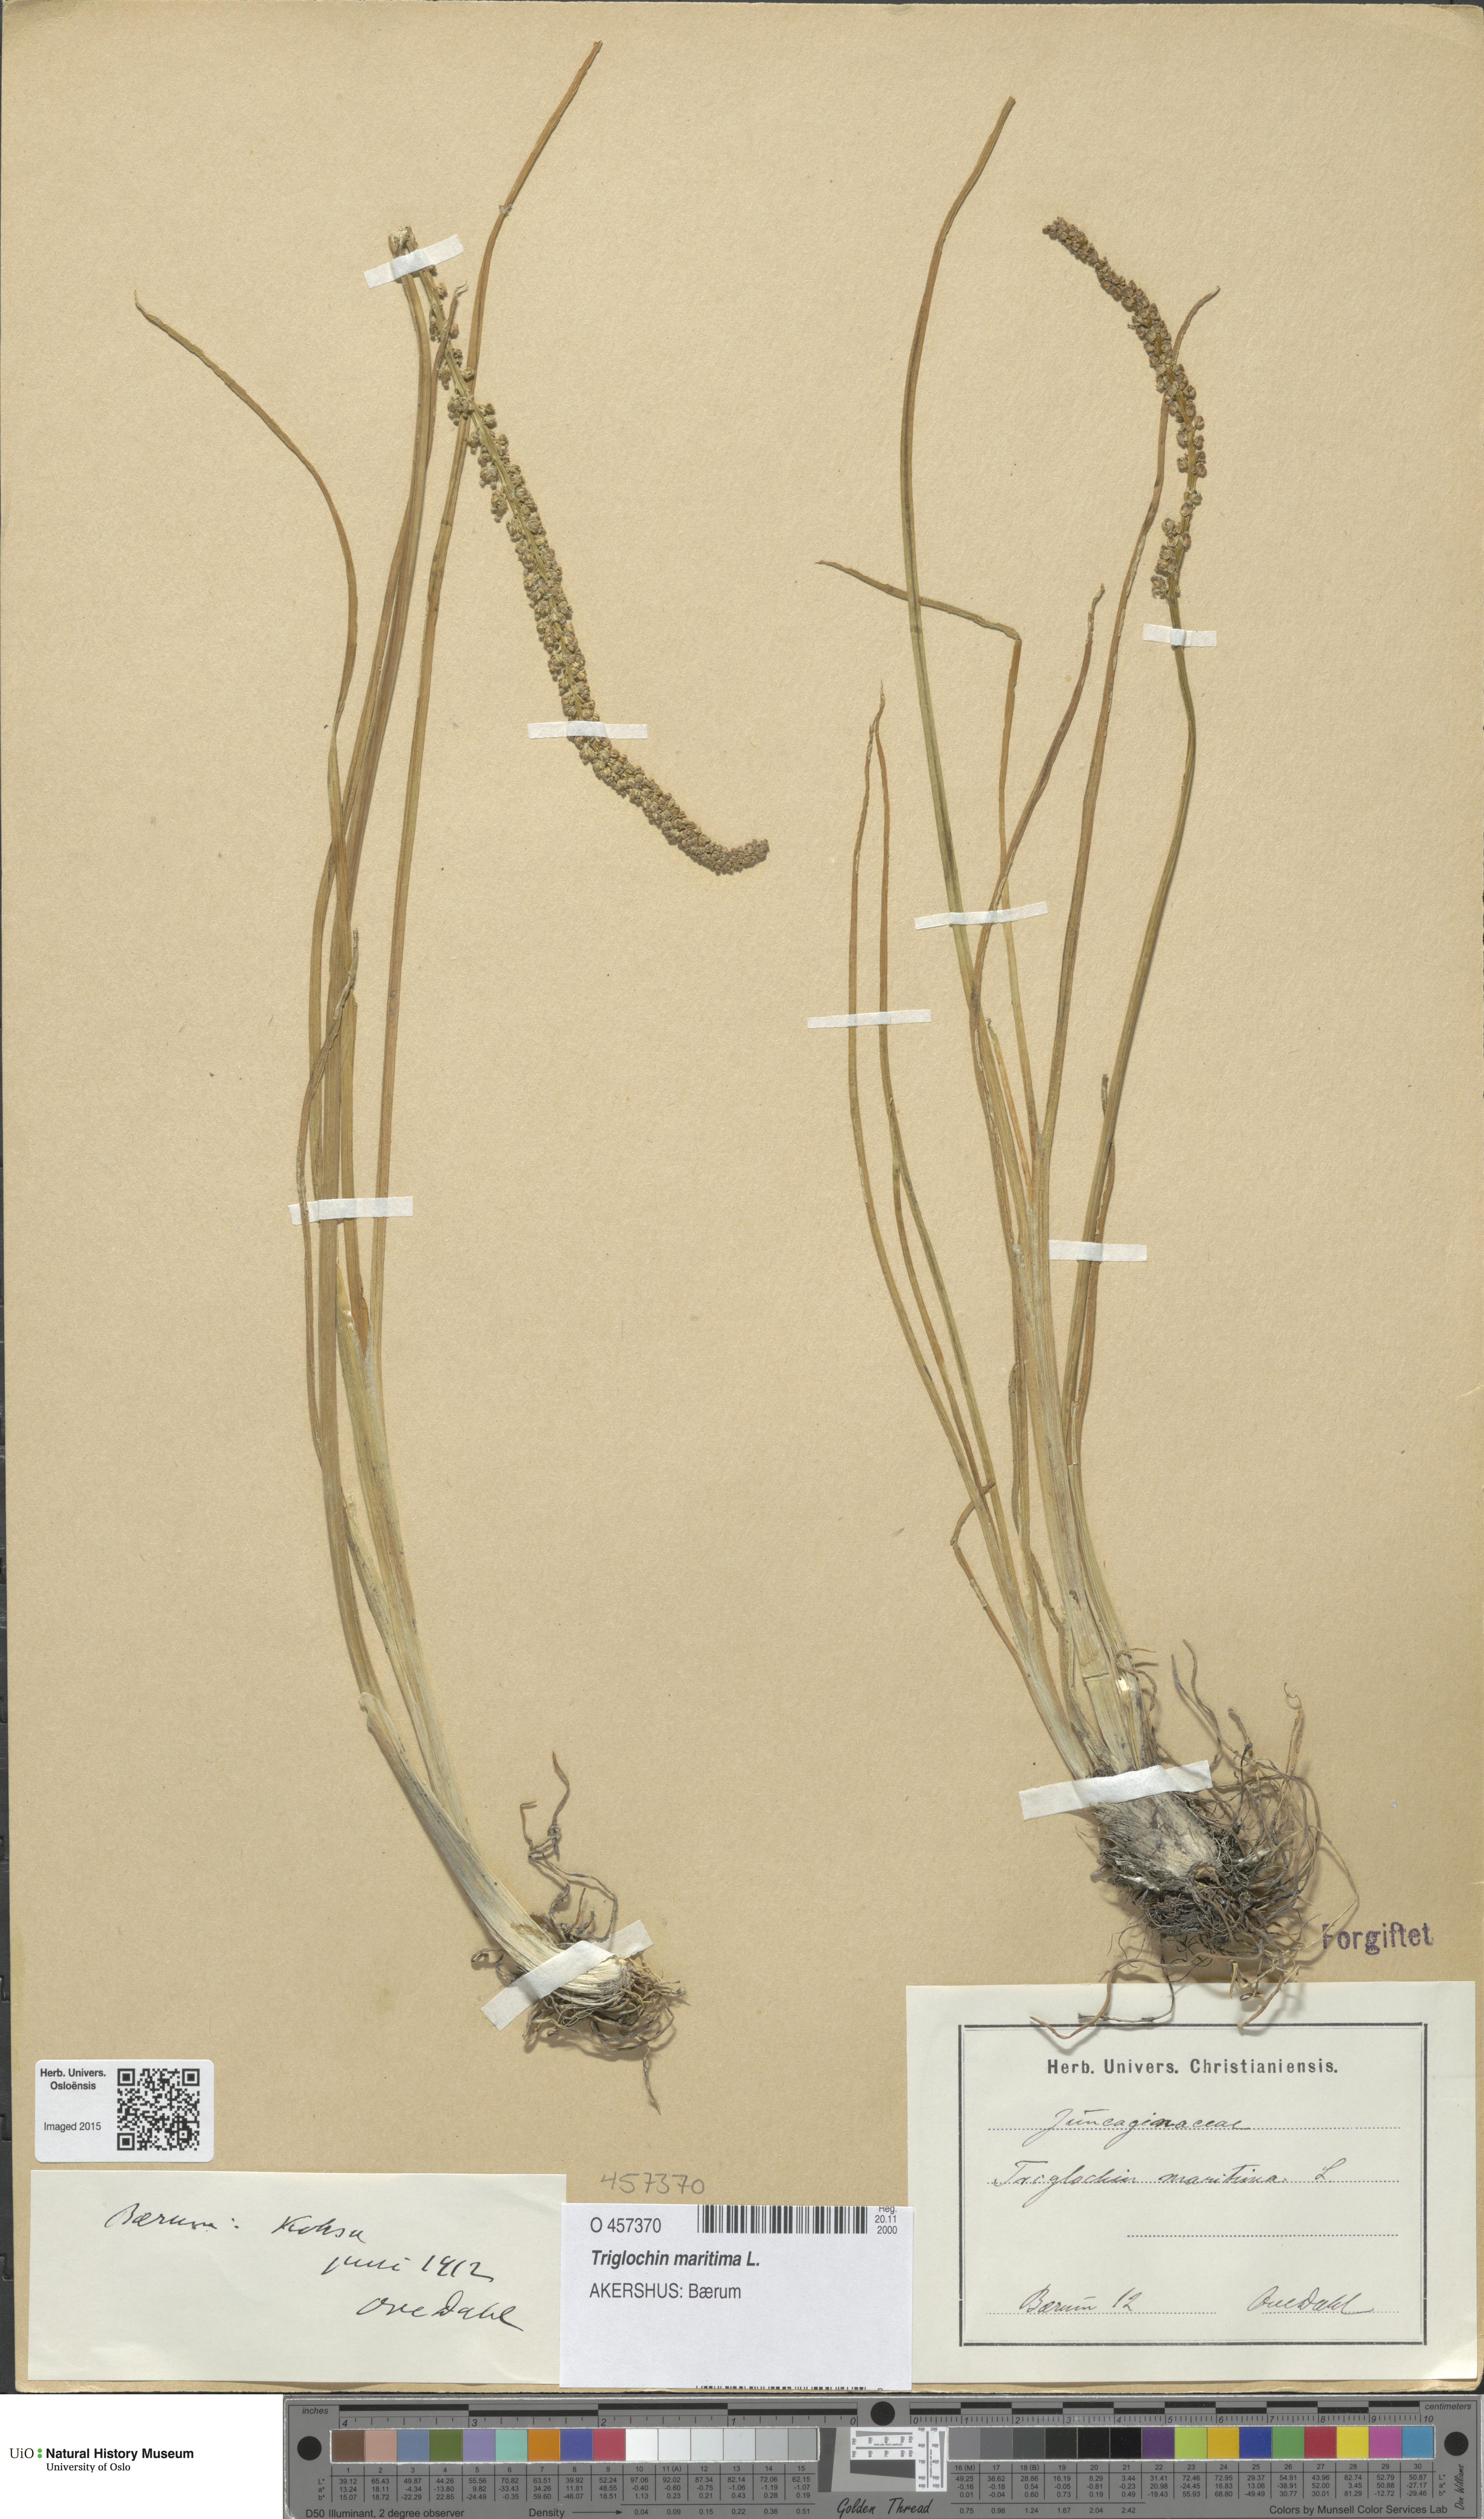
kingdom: Plantae
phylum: Tracheophyta
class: Liliopsida
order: Alismatales
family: Juncaginaceae
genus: Triglochin
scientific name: Triglochin maritima
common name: Sea arrowgrass
